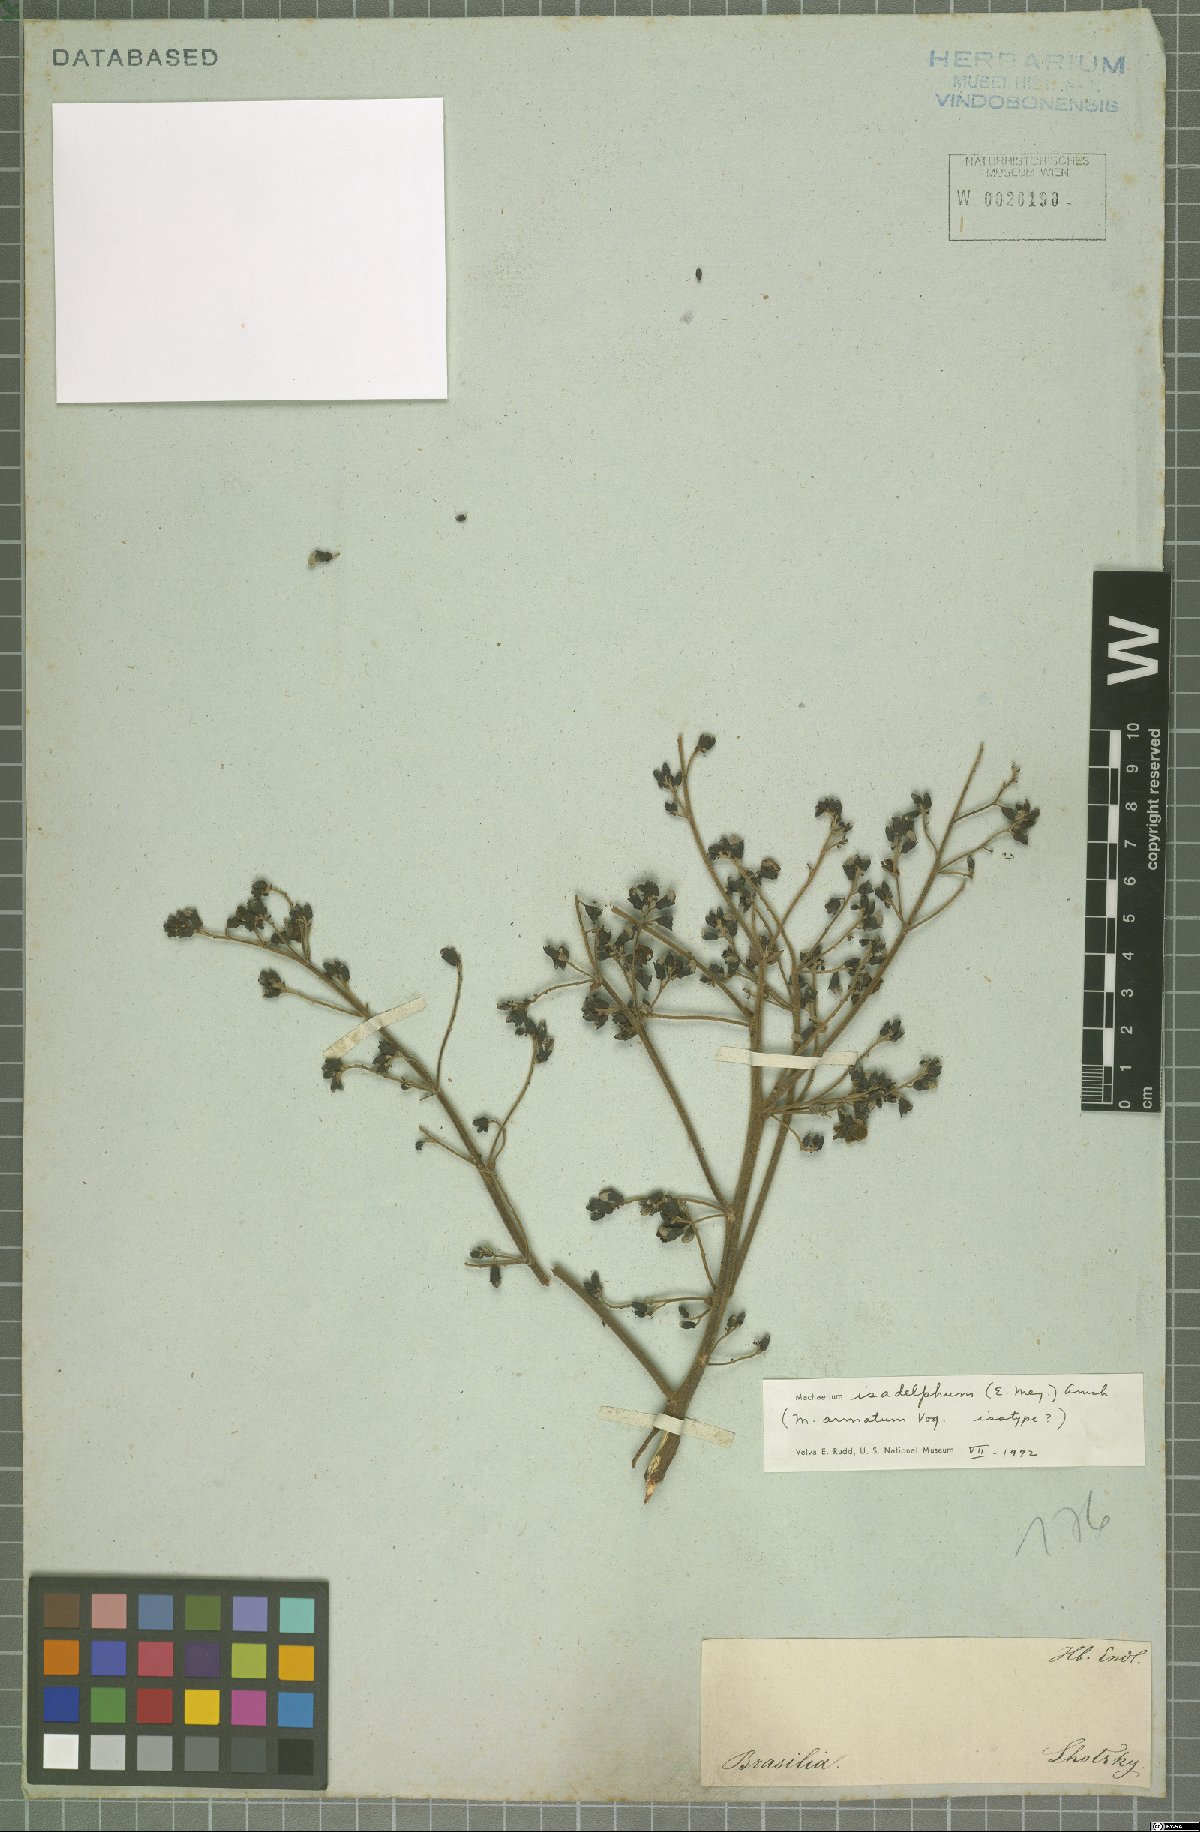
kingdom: Plantae
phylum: Tracheophyta
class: Magnoliopsida
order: Fabales
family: Fabaceae
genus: Machaerium
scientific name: Machaerium isadelphum
